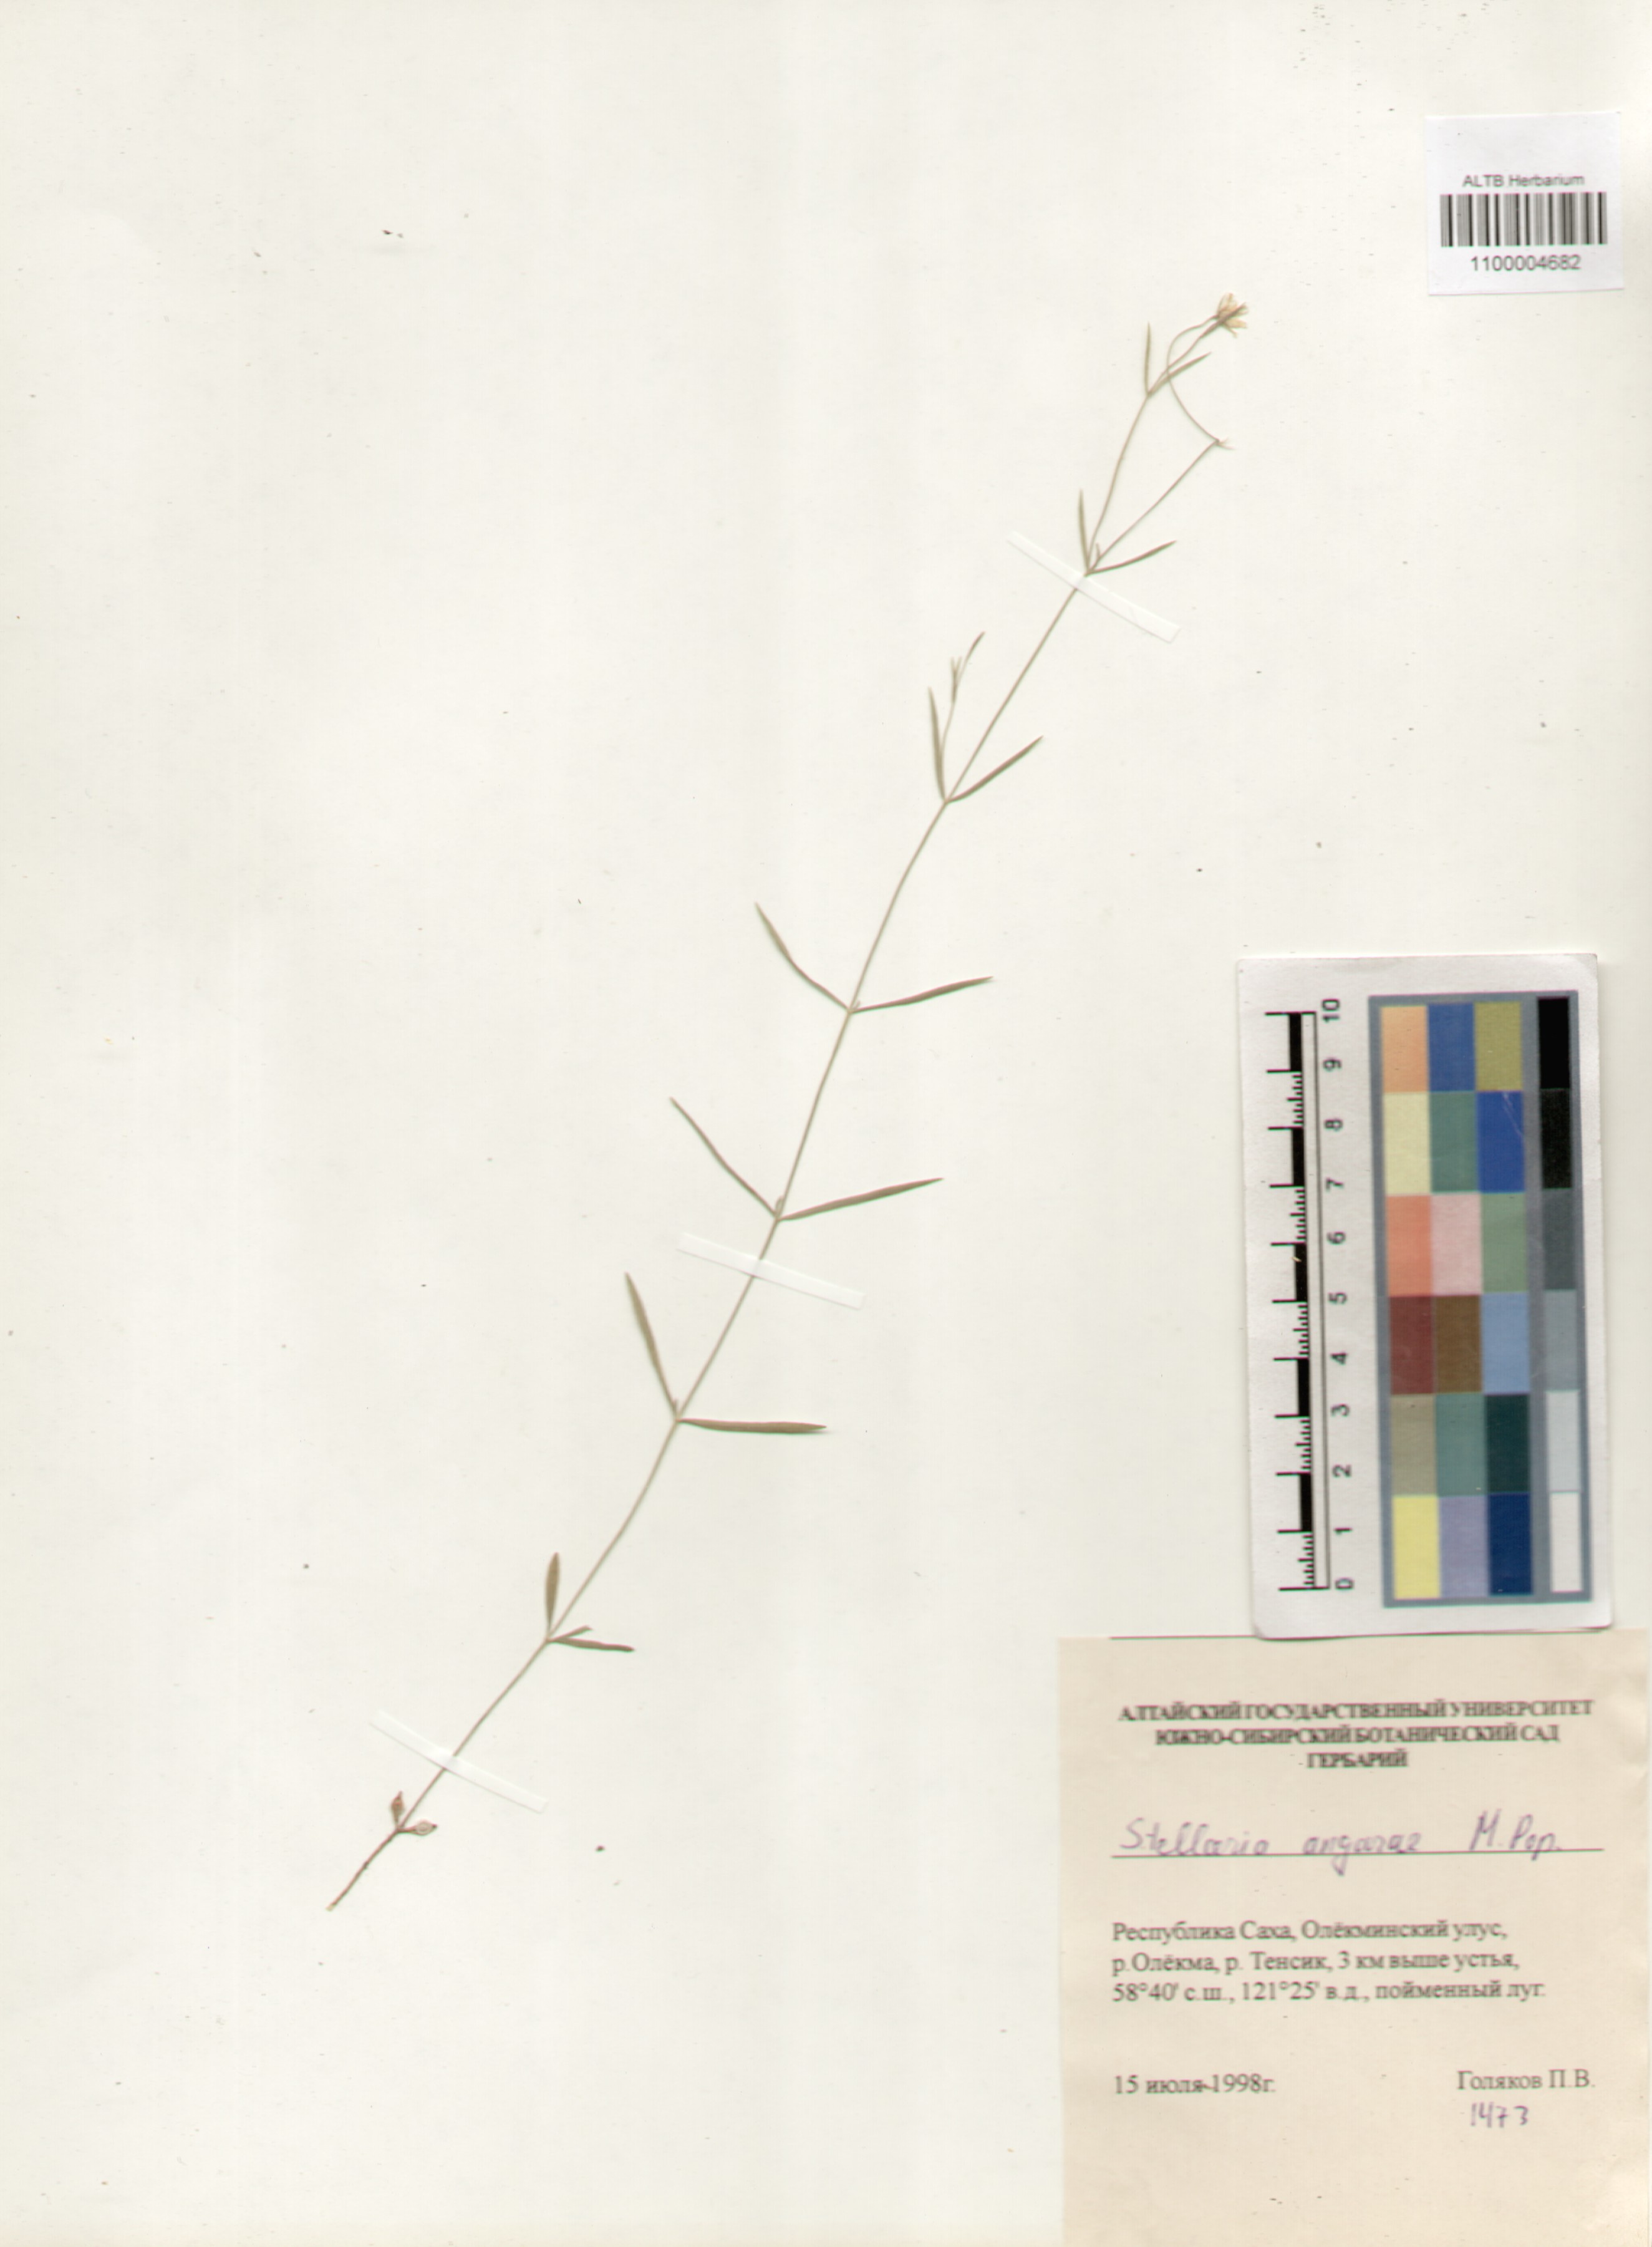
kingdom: Plantae
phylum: Tracheophyta
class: Magnoliopsida
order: Caryophyllales
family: Caryophyllaceae
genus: Stellaria
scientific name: Stellaria angarae
